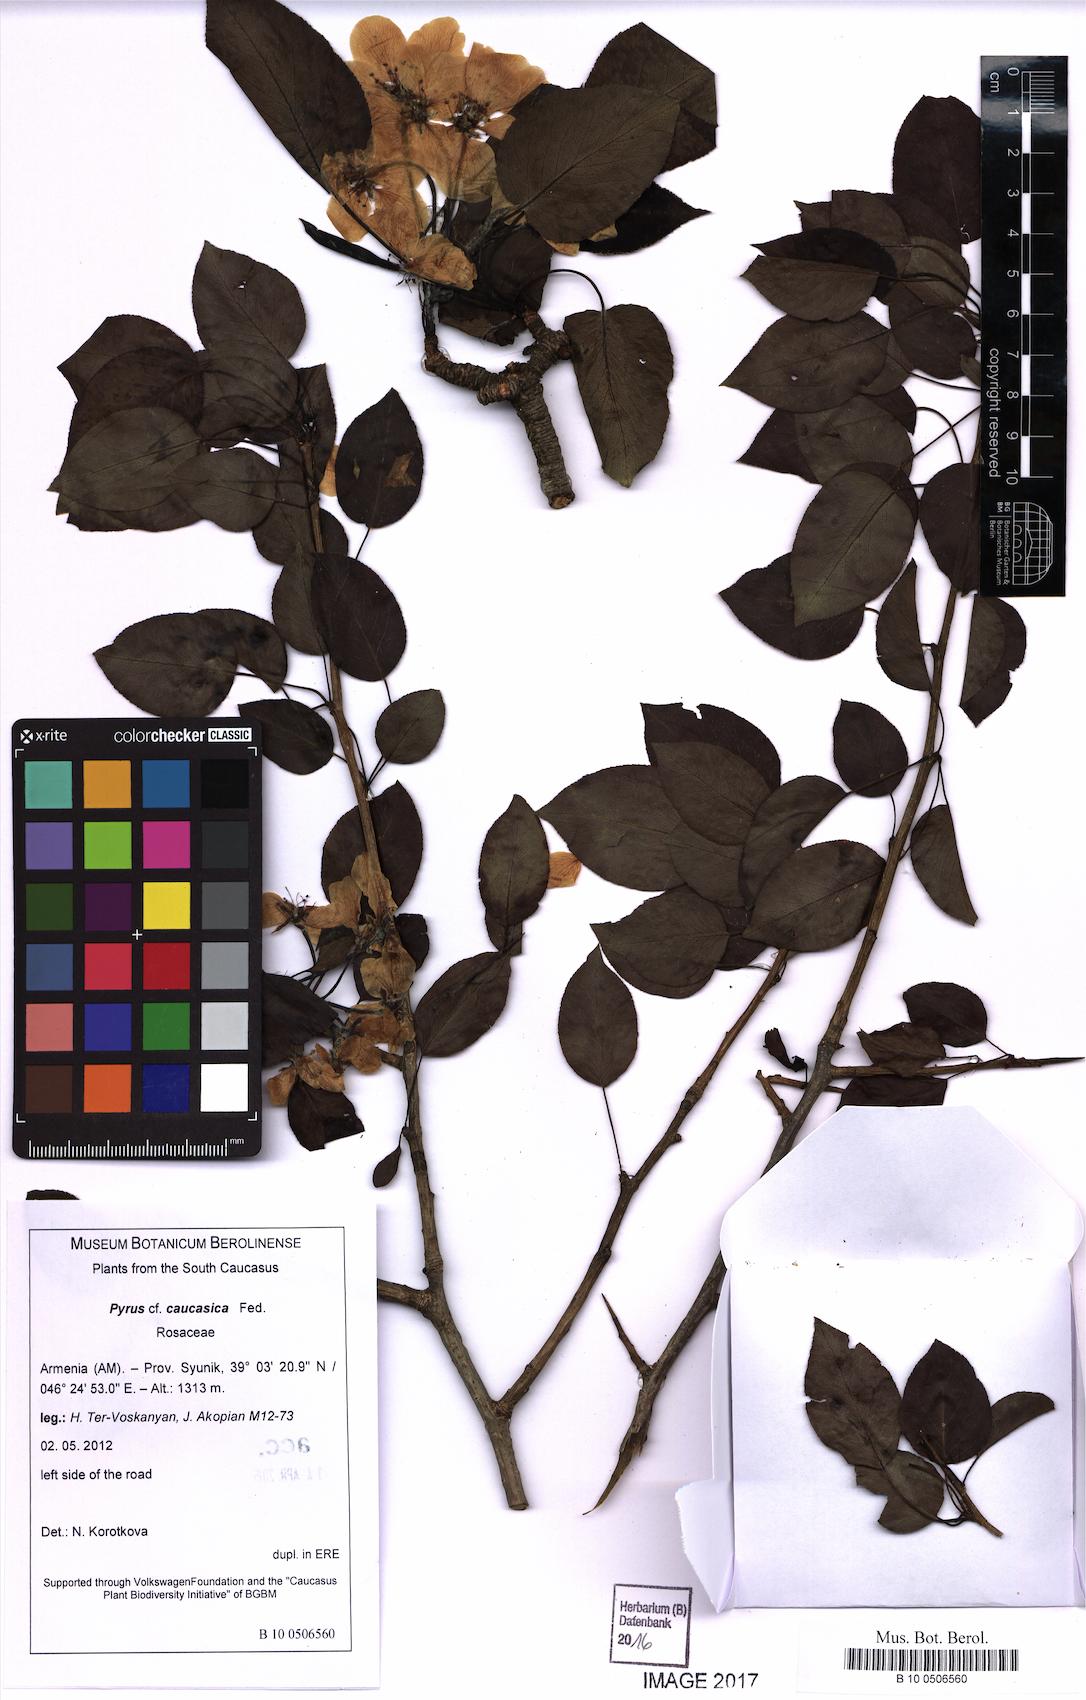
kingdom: Plantae
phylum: Tracheophyta
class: Magnoliopsida
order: Rosales
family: Rosaceae
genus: Pyrus
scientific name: Pyrus communis
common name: Pear
